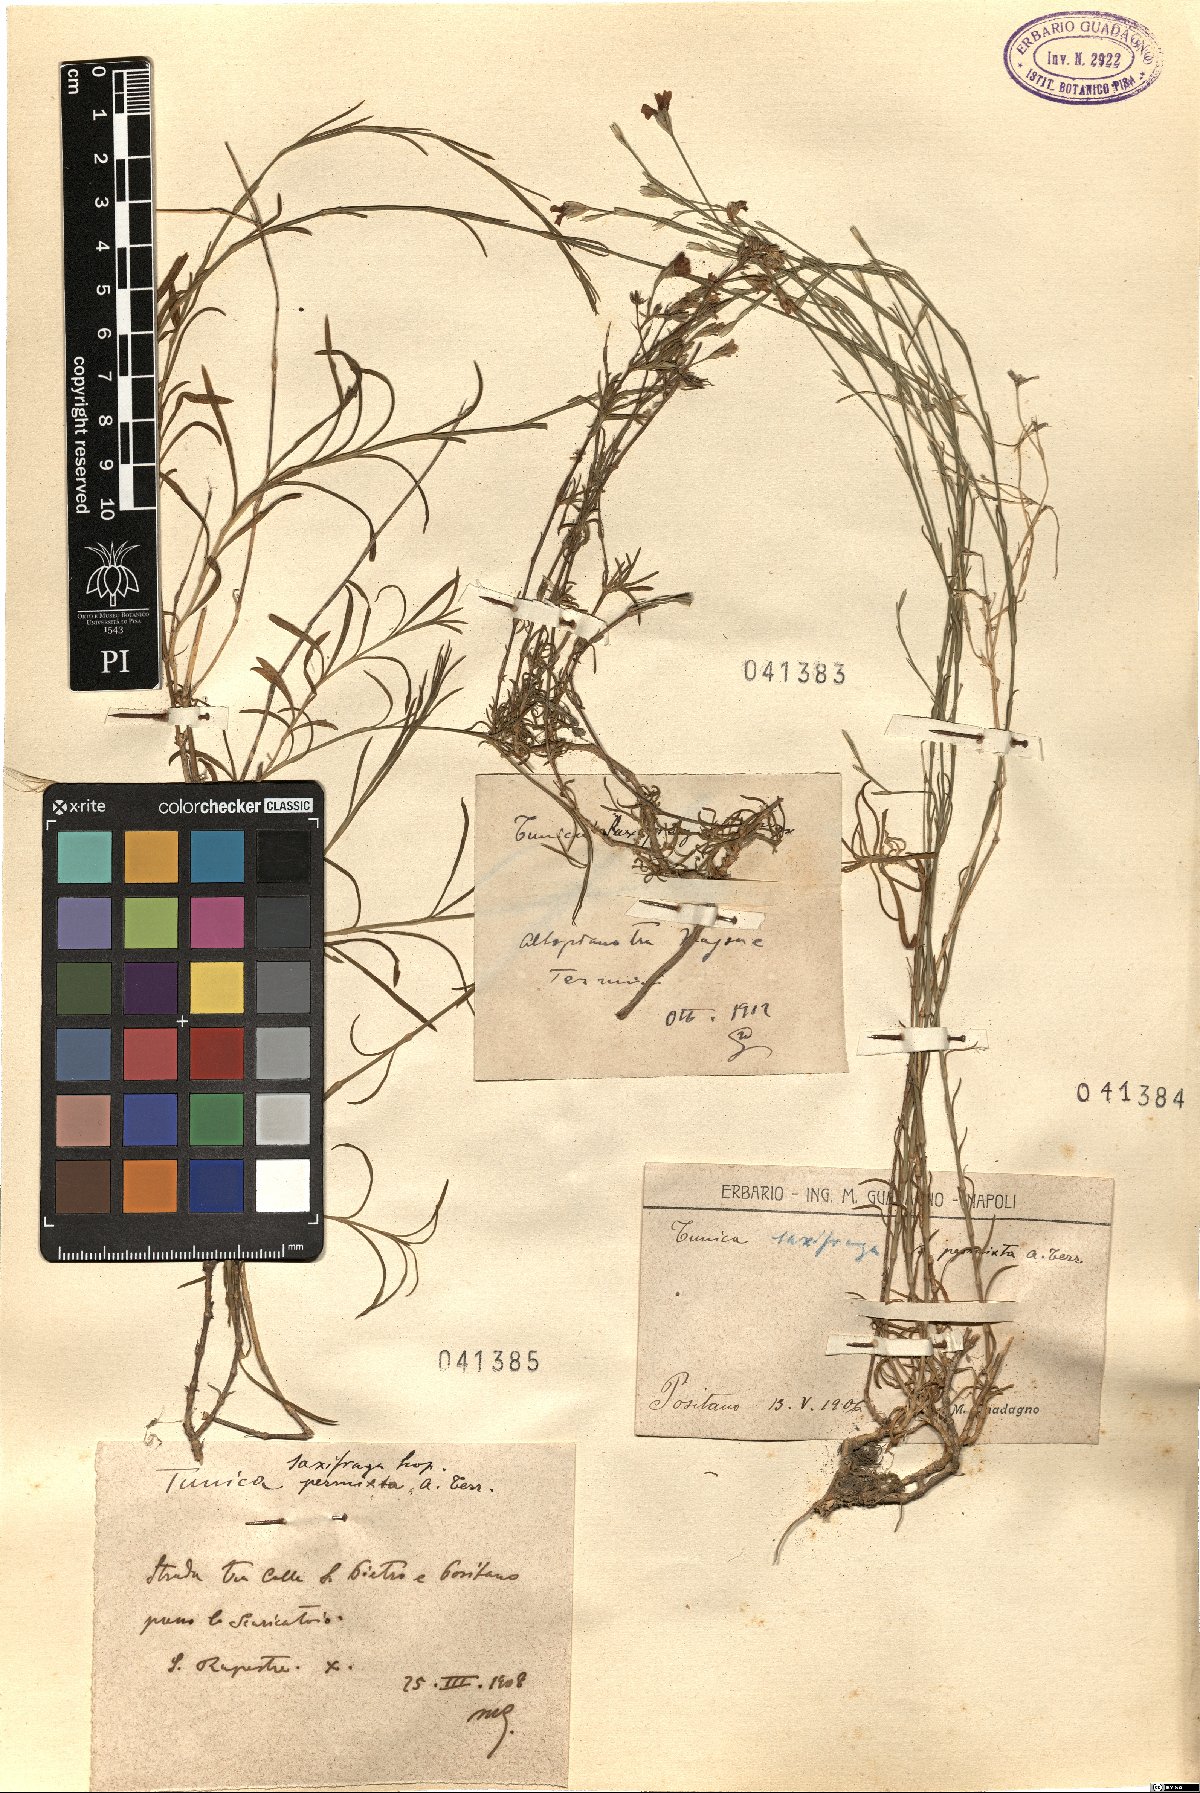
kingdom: Plantae
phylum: Tracheophyta
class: Magnoliopsida
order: Caryophyllales
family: Caryophyllaceae
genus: Petrorhagia
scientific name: Petrorhagia saxifraga
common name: Tunicflower
